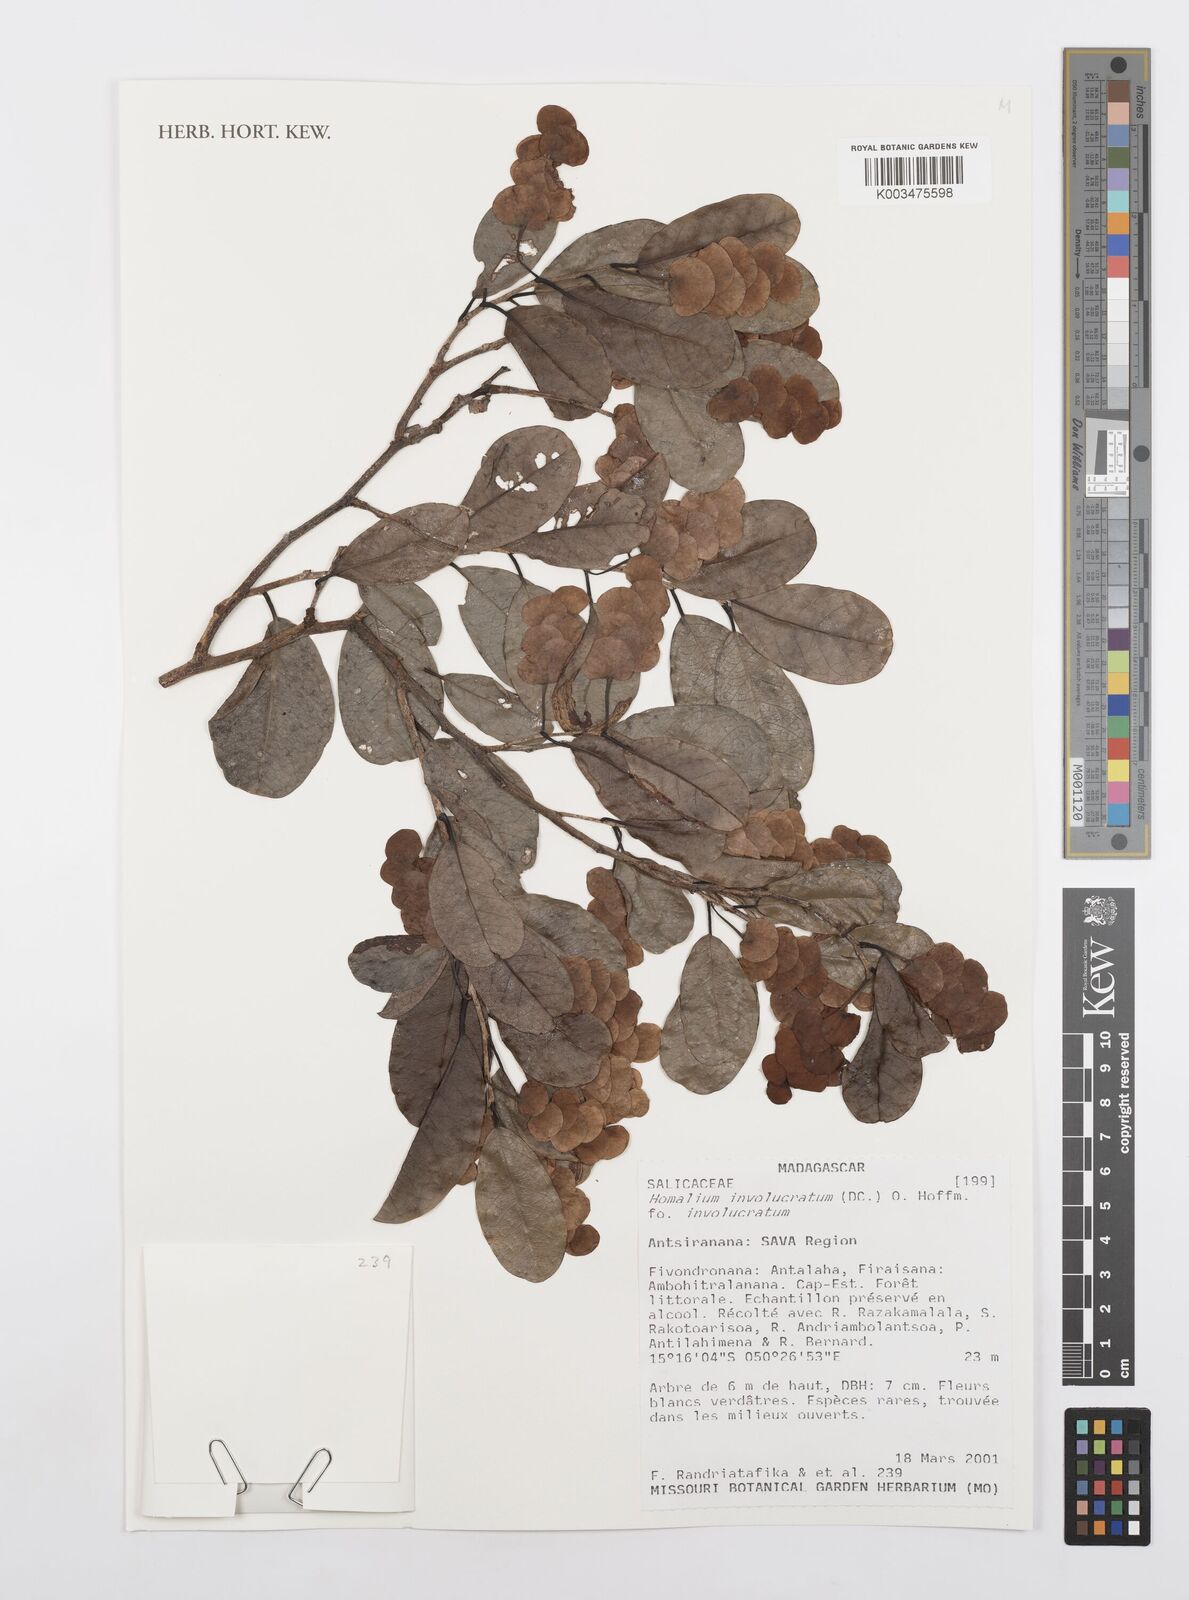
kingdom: Plantae
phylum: Tracheophyta
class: Magnoliopsida
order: Malpighiales
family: Salicaceae
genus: Homalium
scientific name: Homalium involucratum
